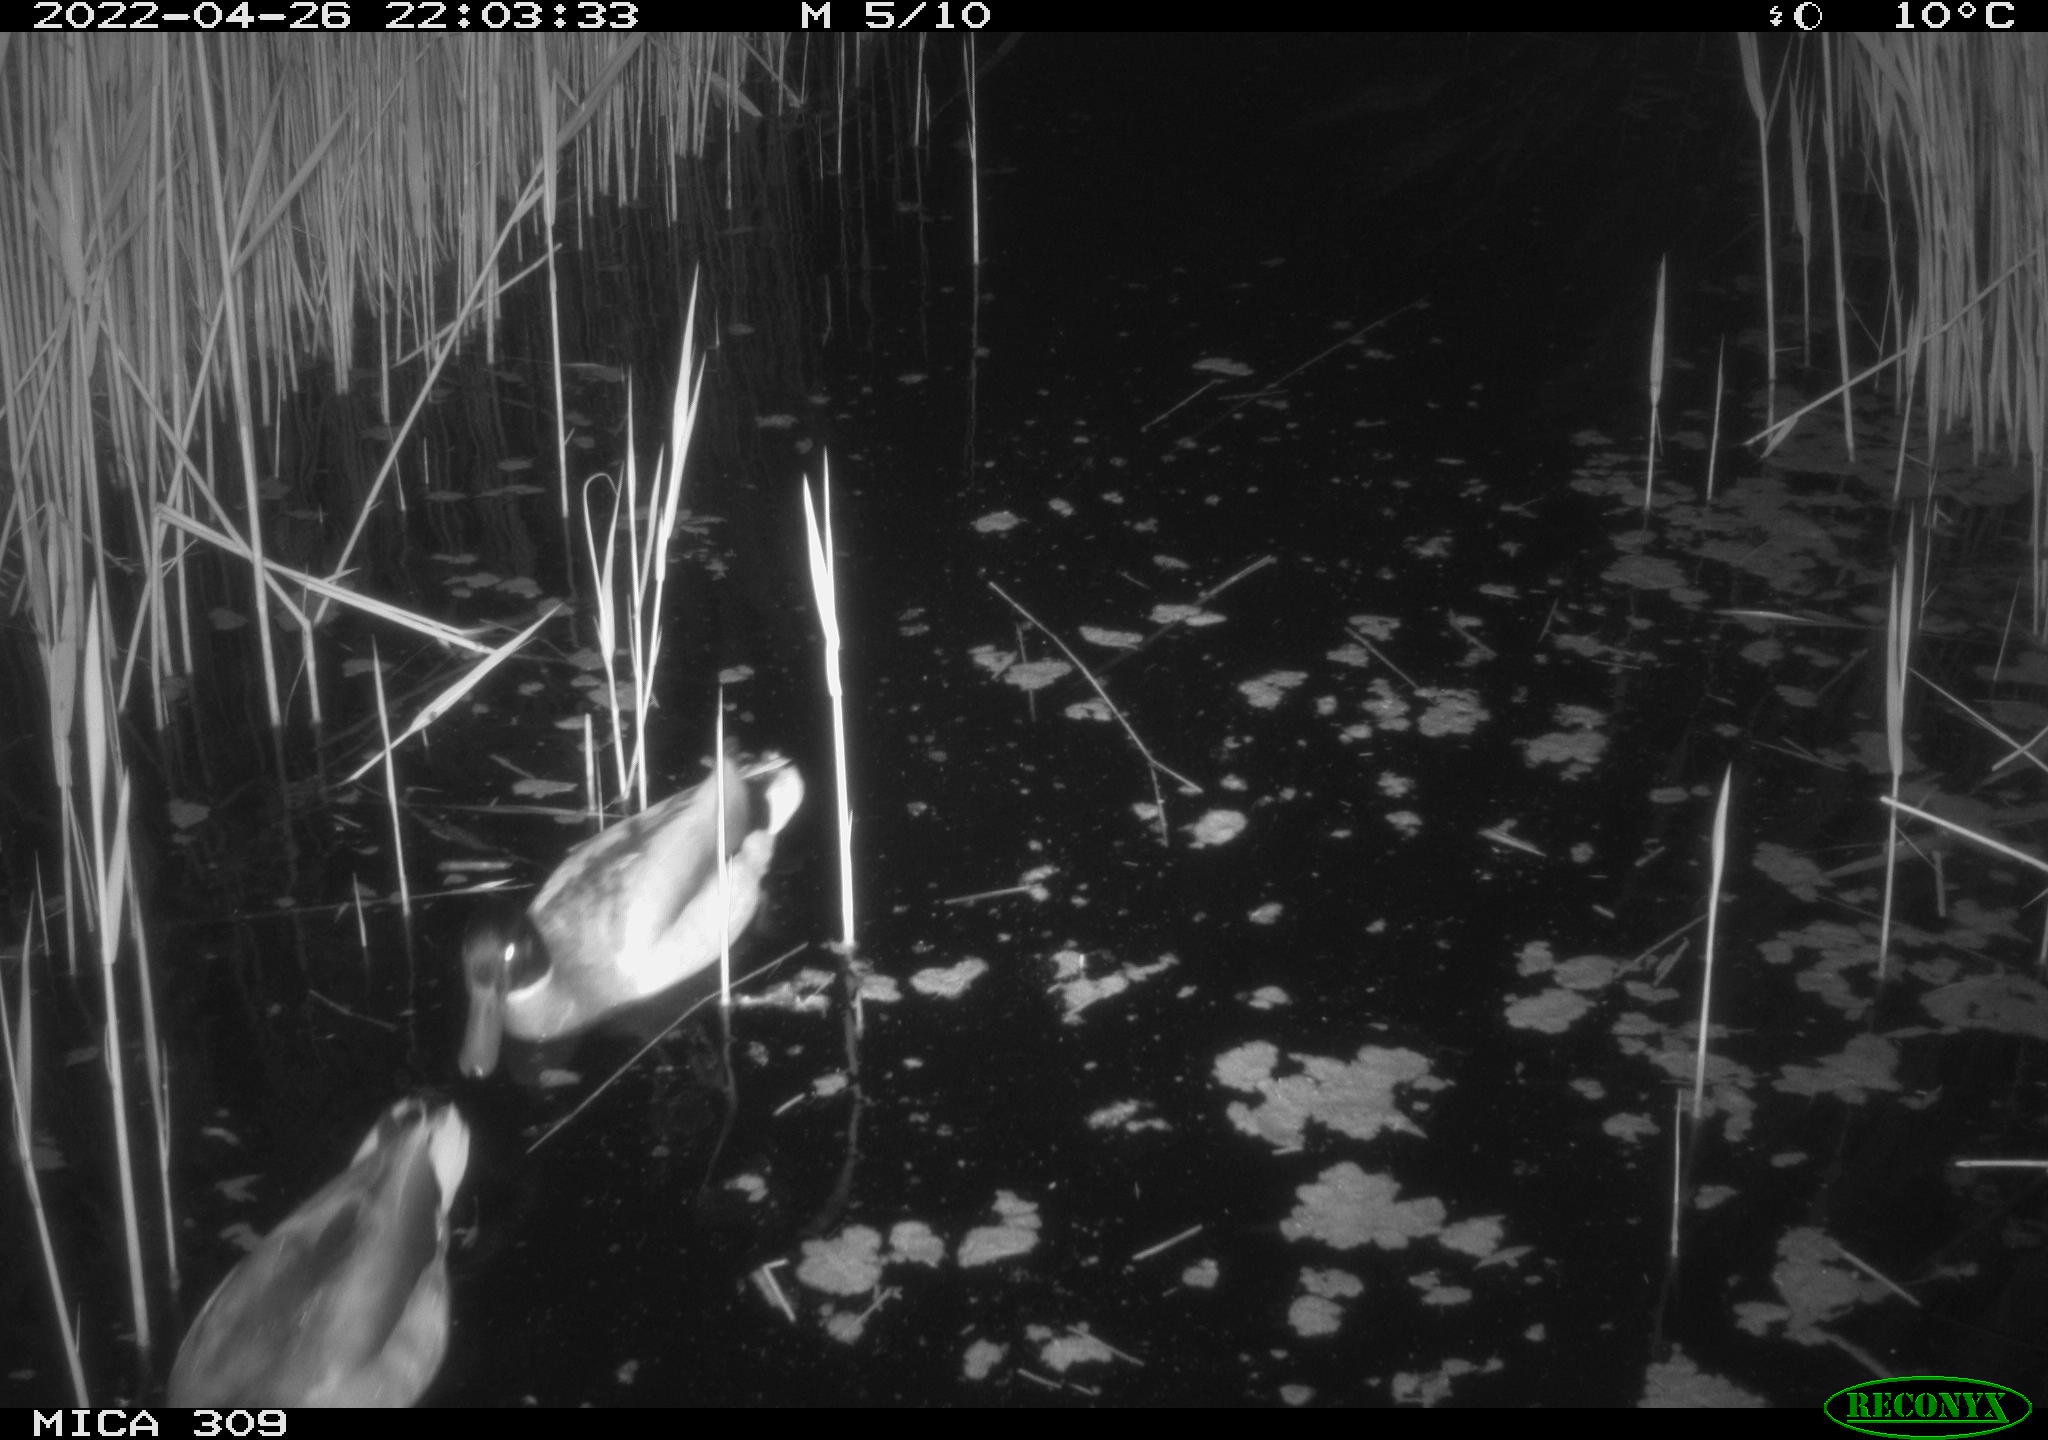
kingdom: Animalia
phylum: Chordata
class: Aves
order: Anseriformes
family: Anatidae
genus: Anas
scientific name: Anas platyrhynchos
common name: Mallard
